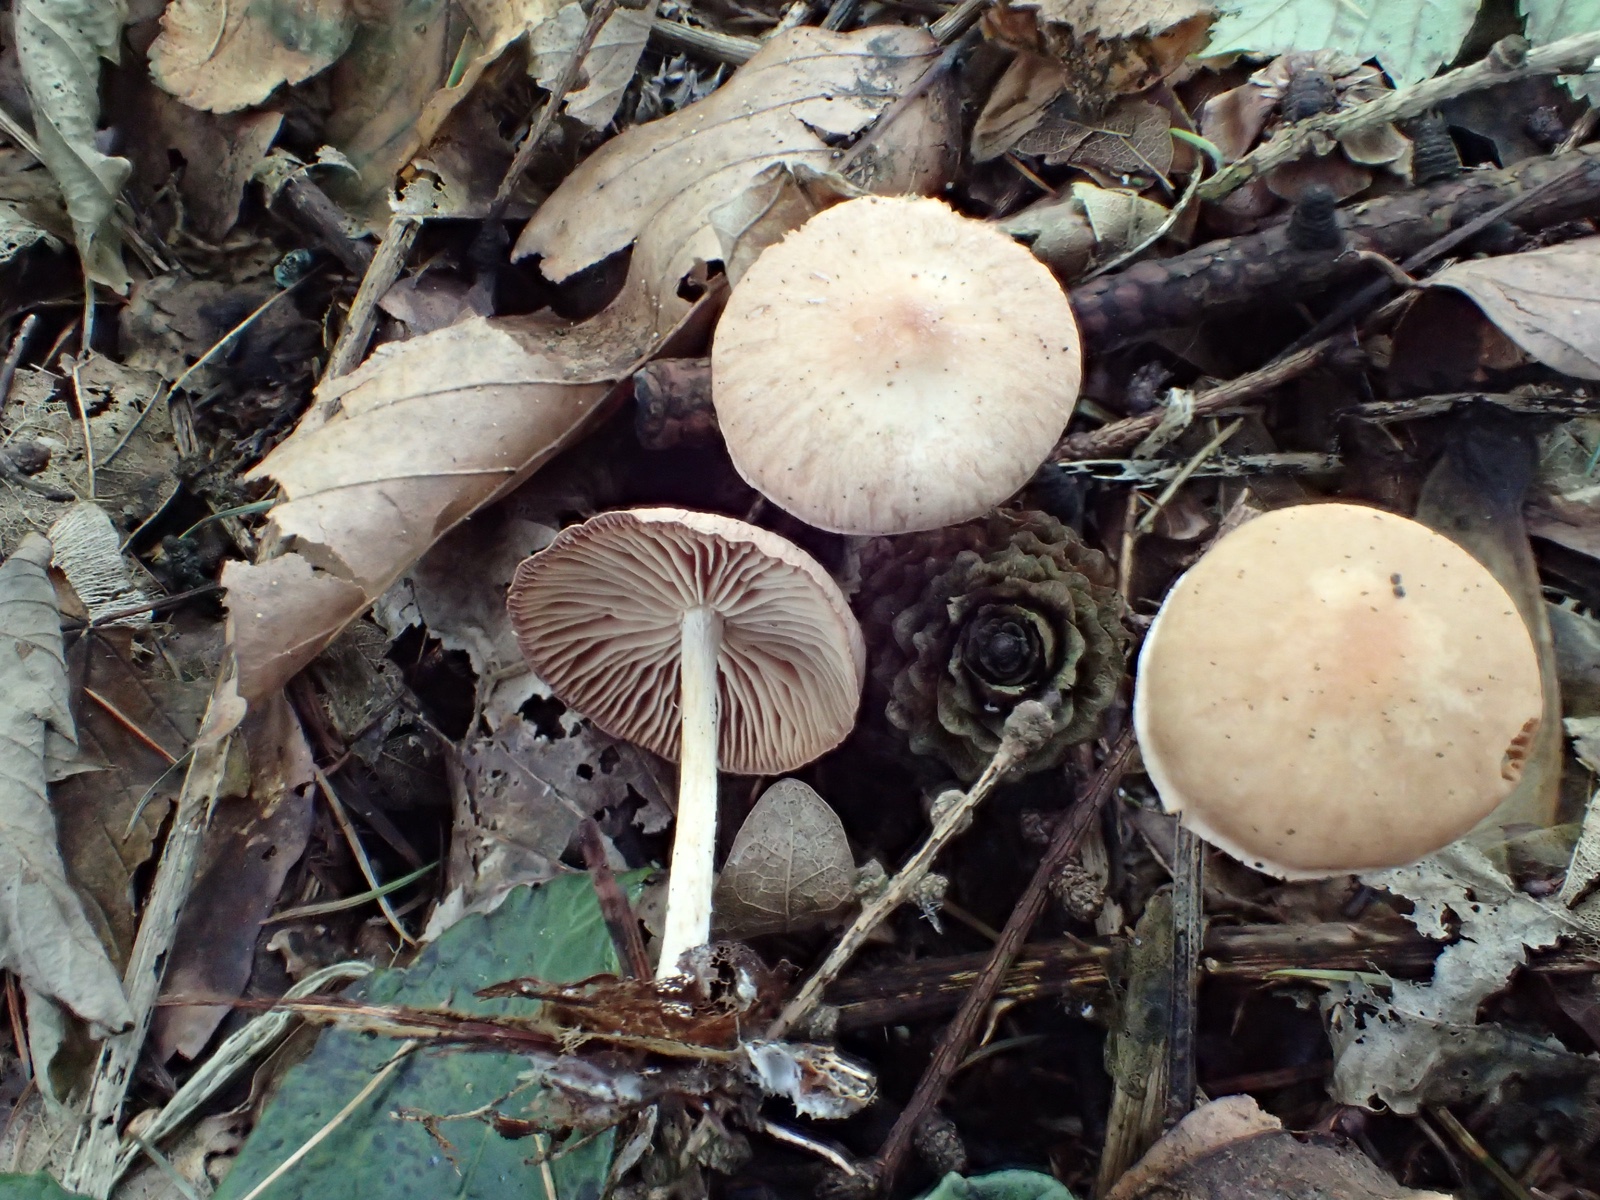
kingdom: Fungi
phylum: Basidiomycota
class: Agaricomycetes
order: Agaricales
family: Omphalotaceae
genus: Collybiopsis
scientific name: Collybiopsis peronata
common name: bestøvlet fladhat
